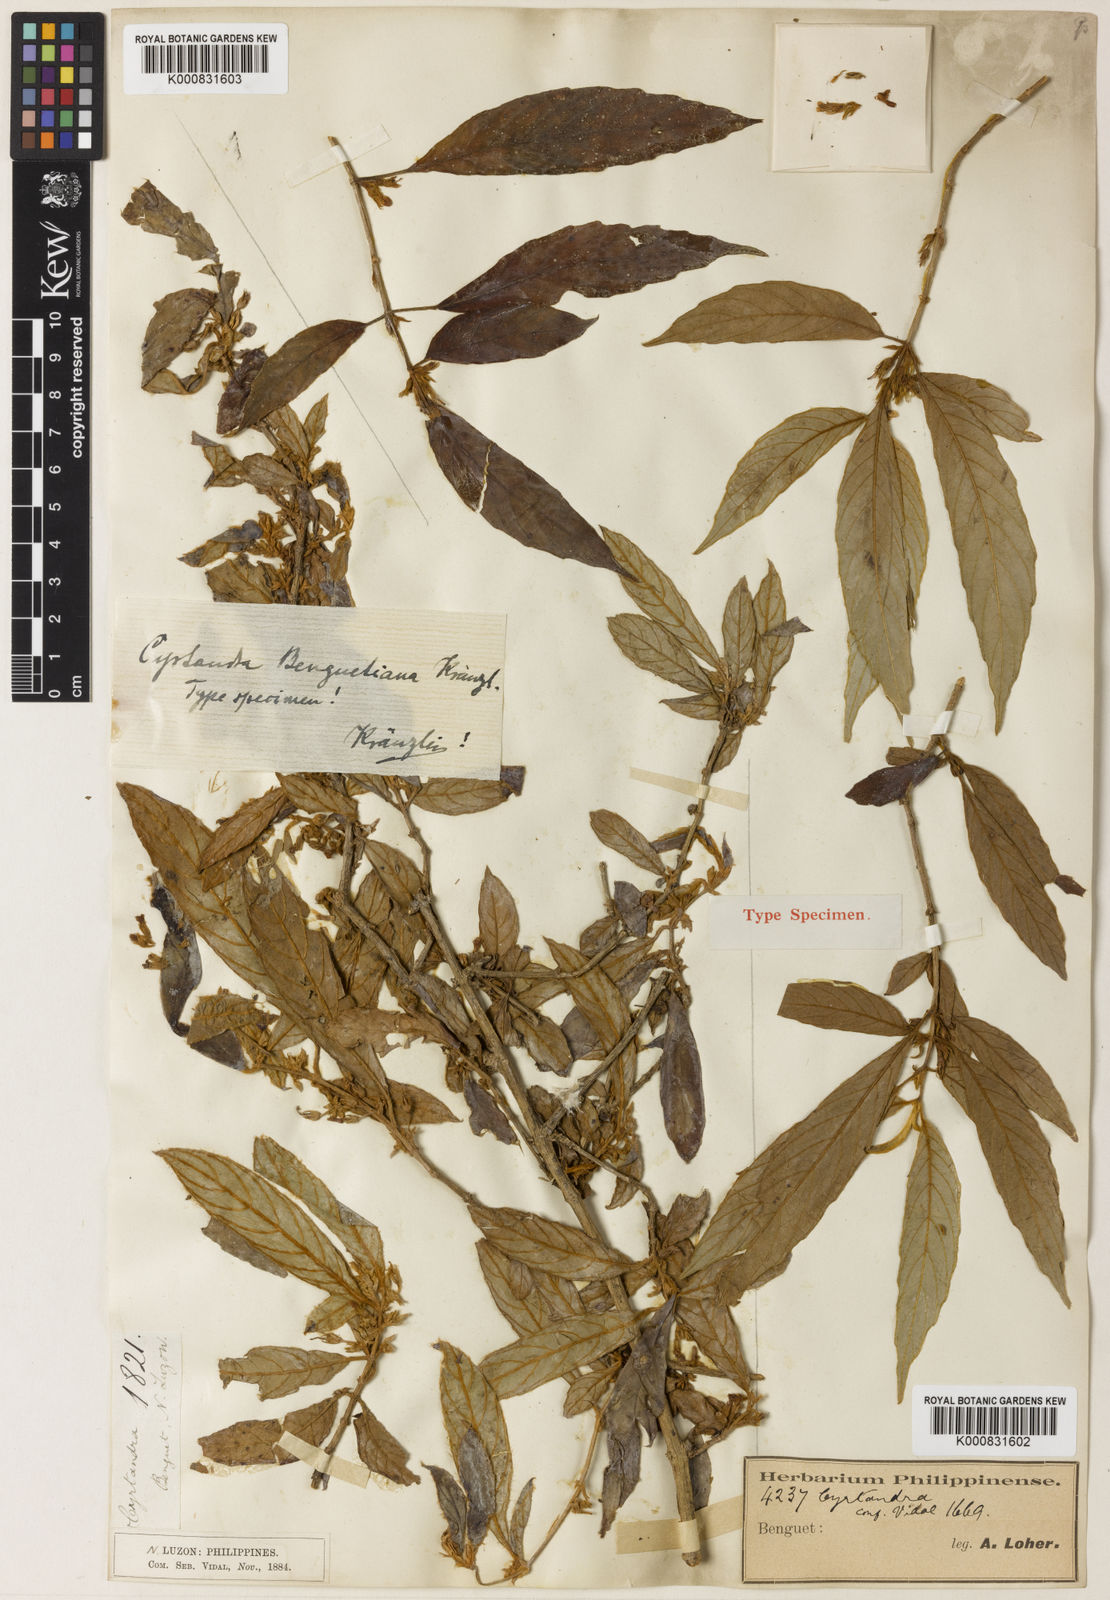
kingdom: Plantae
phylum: Tracheophyta
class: Magnoliopsida
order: Lamiales
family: Gesneriaceae
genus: Cyrtandra
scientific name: Cyrtandra benguetiana
